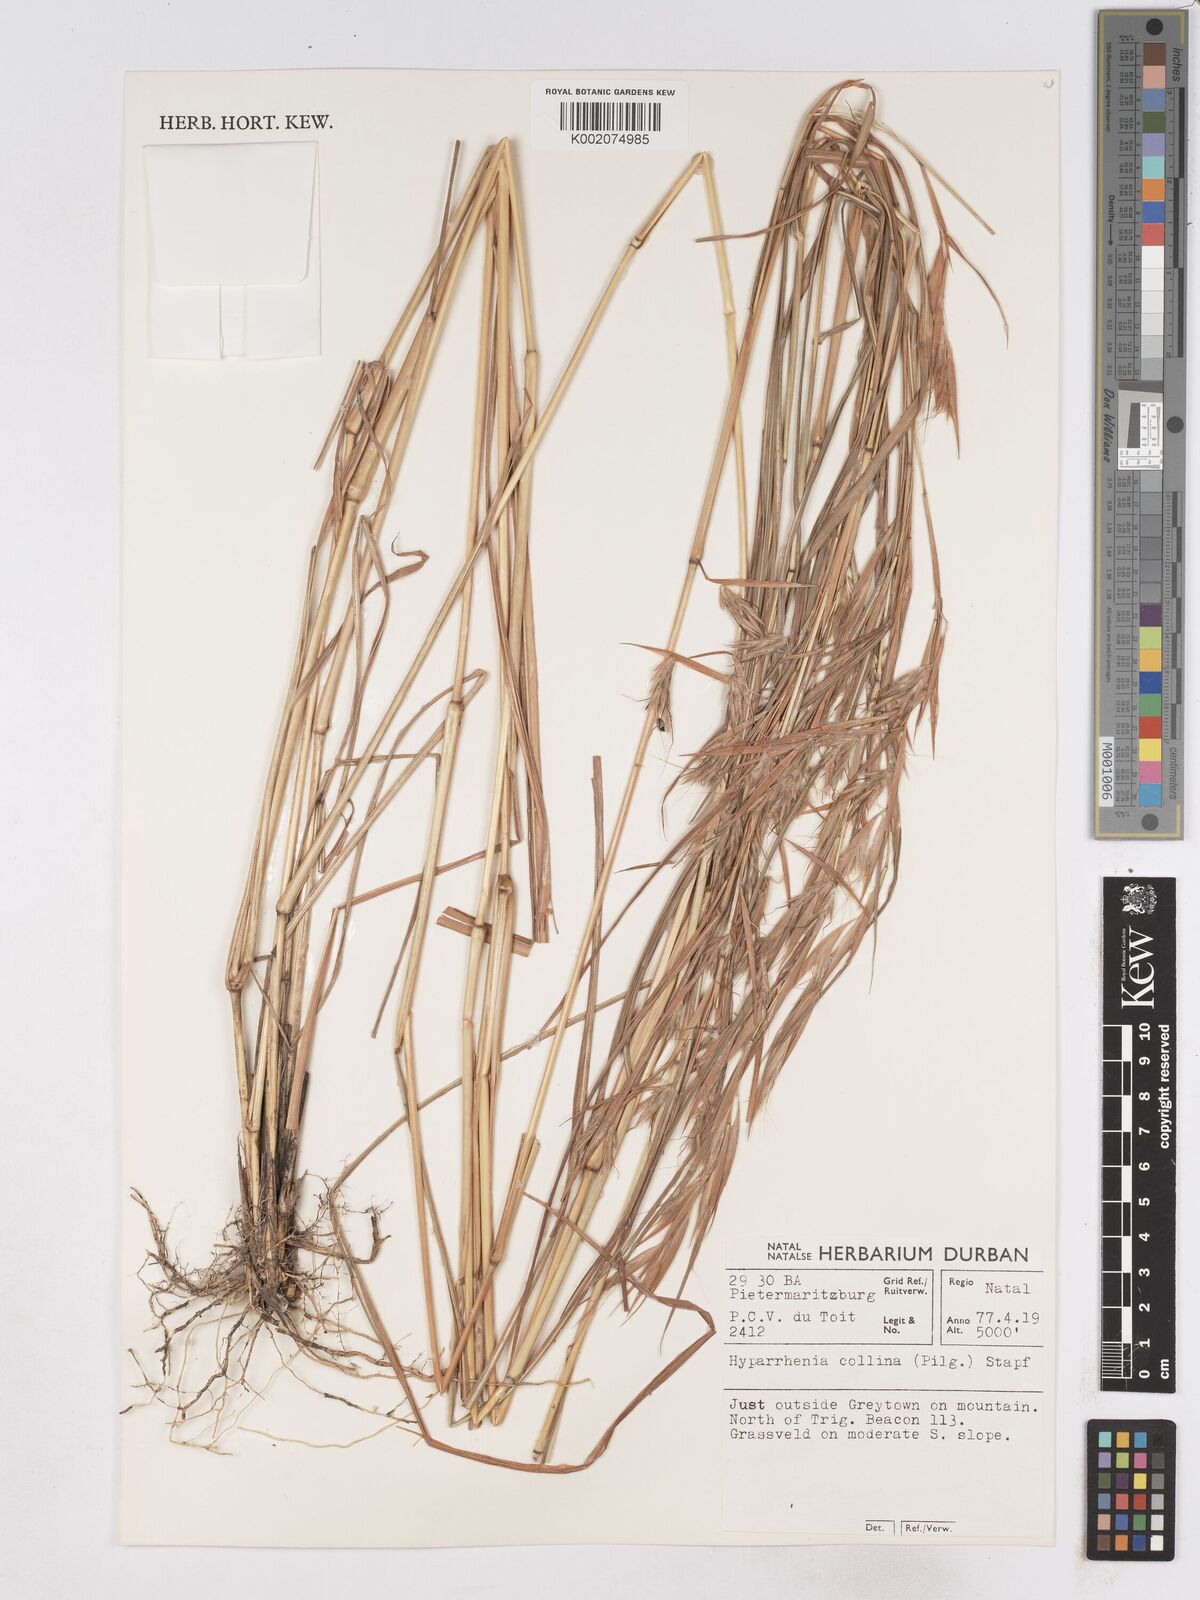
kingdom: Plantae
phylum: Tracheophyta
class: Liliopsida
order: Poales
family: Poaceae
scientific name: Poaceae
